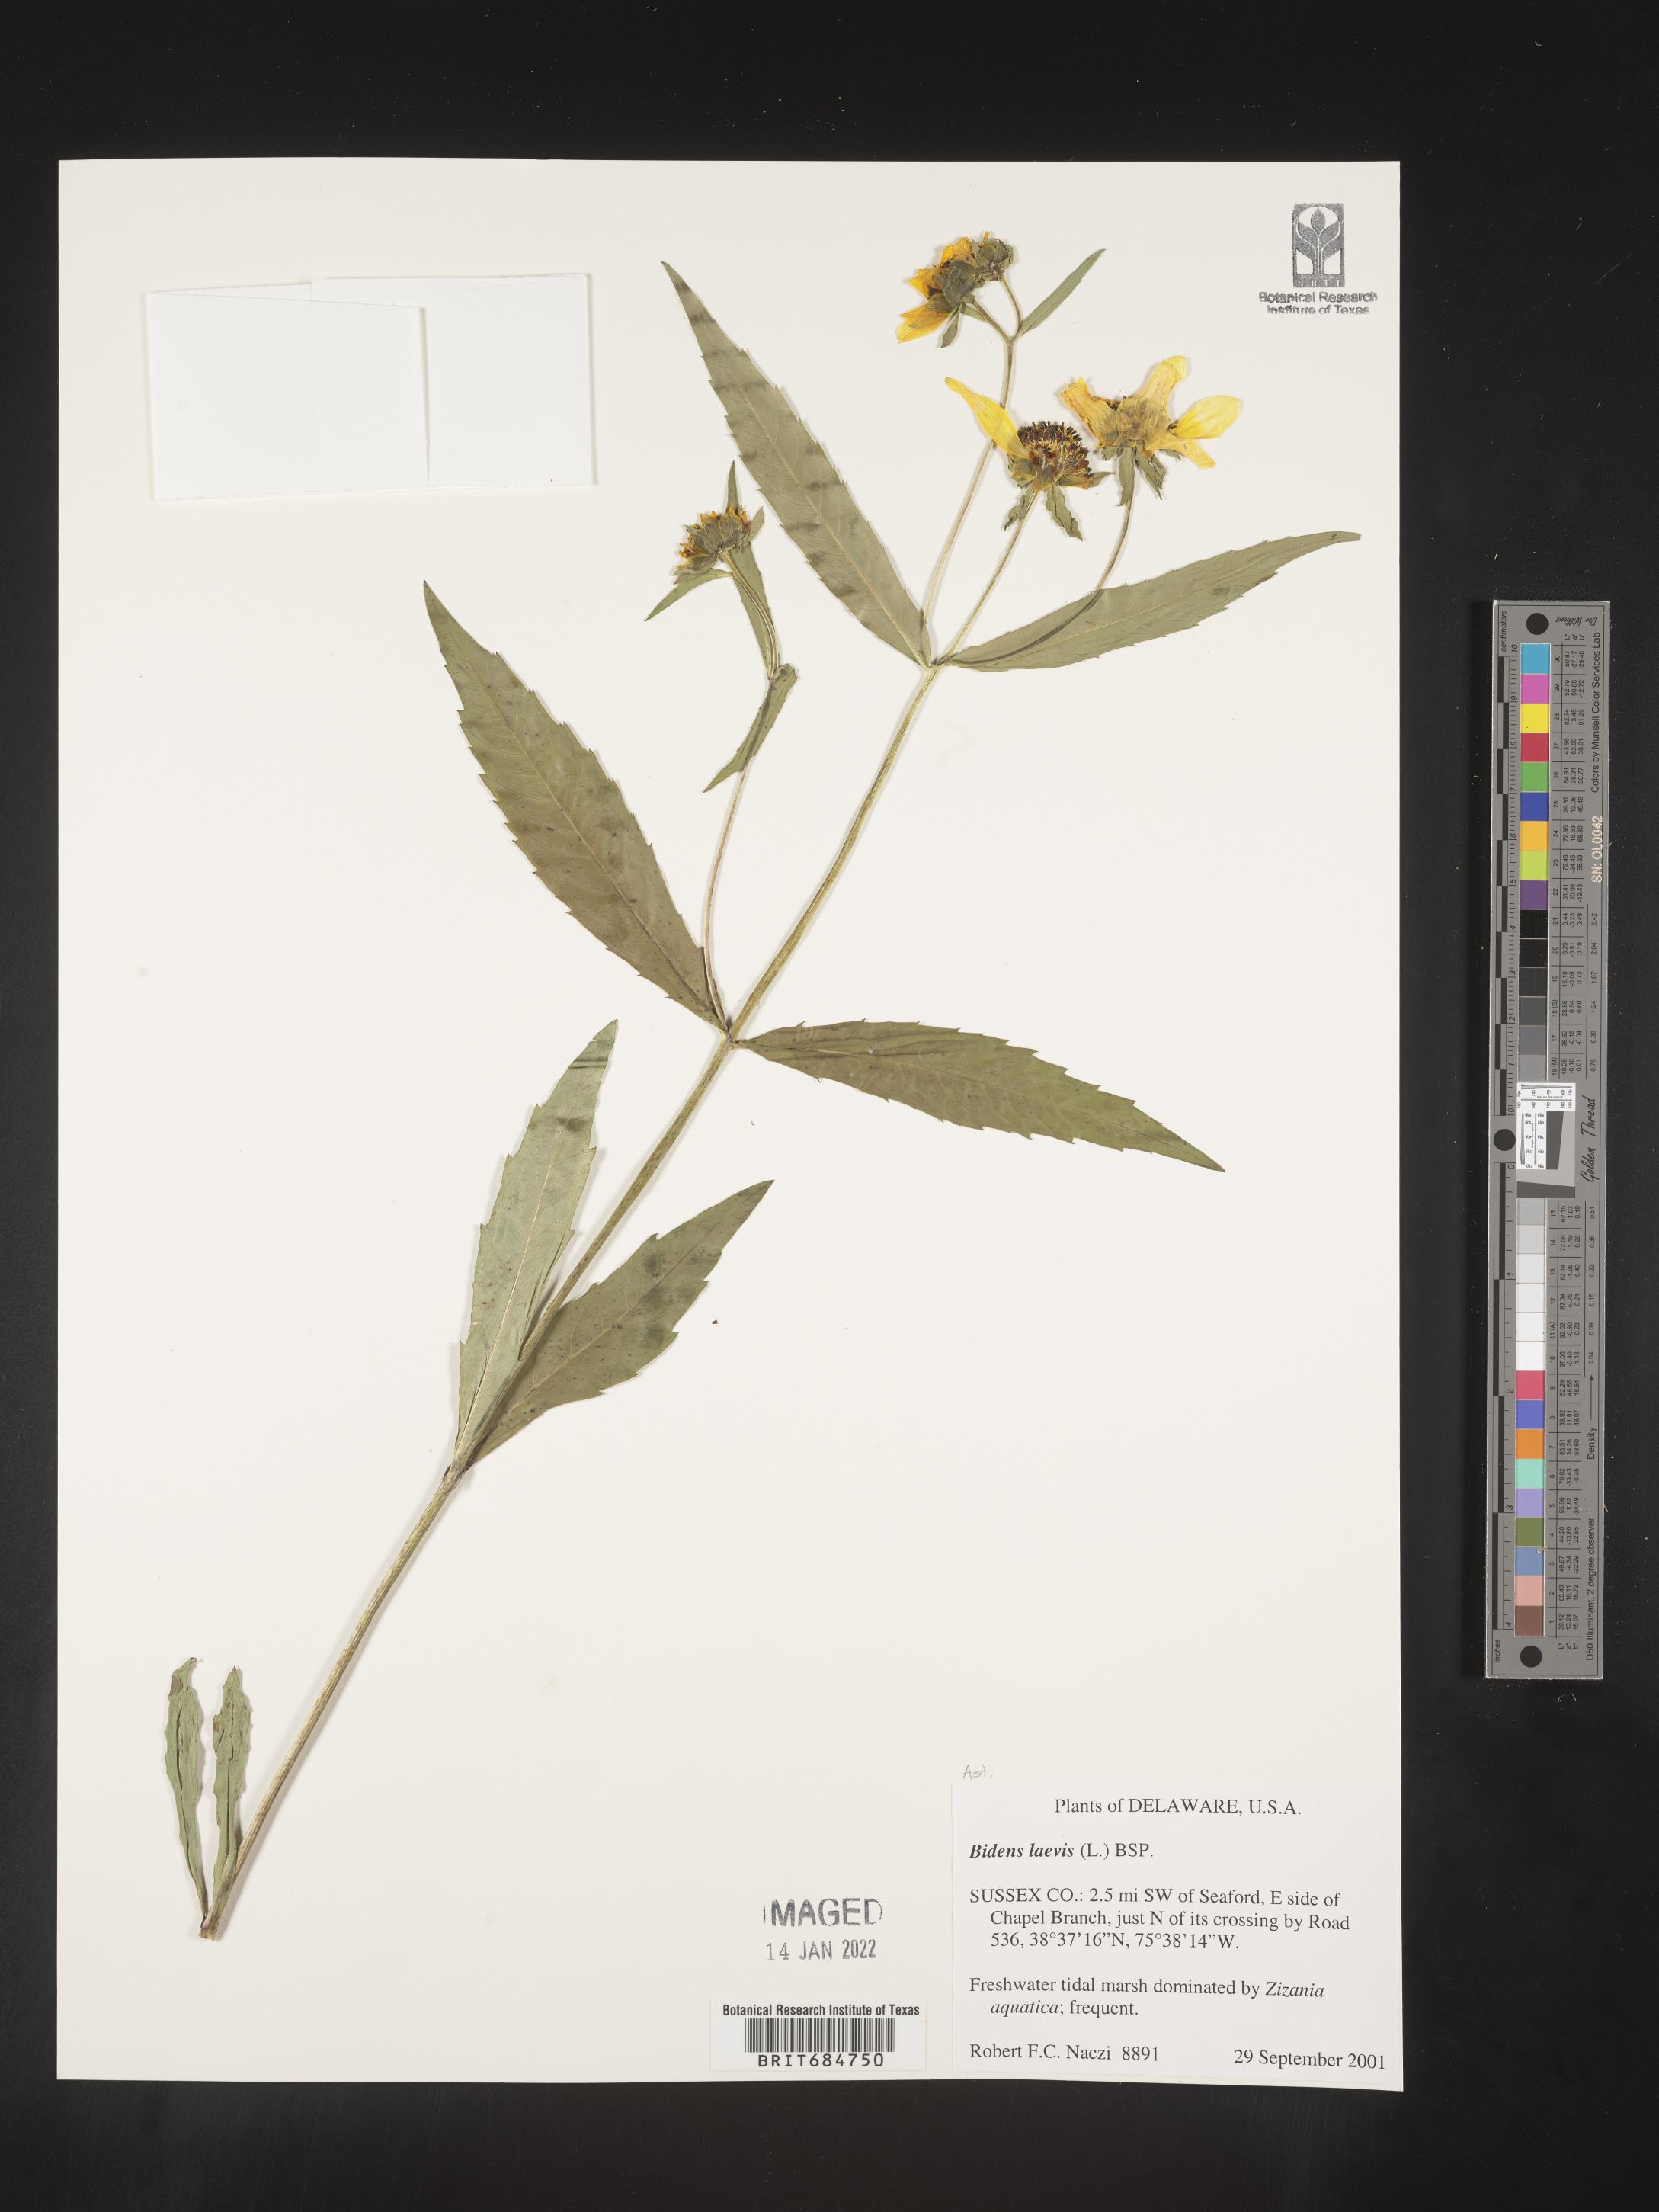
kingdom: Plantae
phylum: Tracheophyta
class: Magnoliopsida
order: Asterales
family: Asteraceae
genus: Bidens
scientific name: Bidens laevis
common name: Larger bur-marigold
